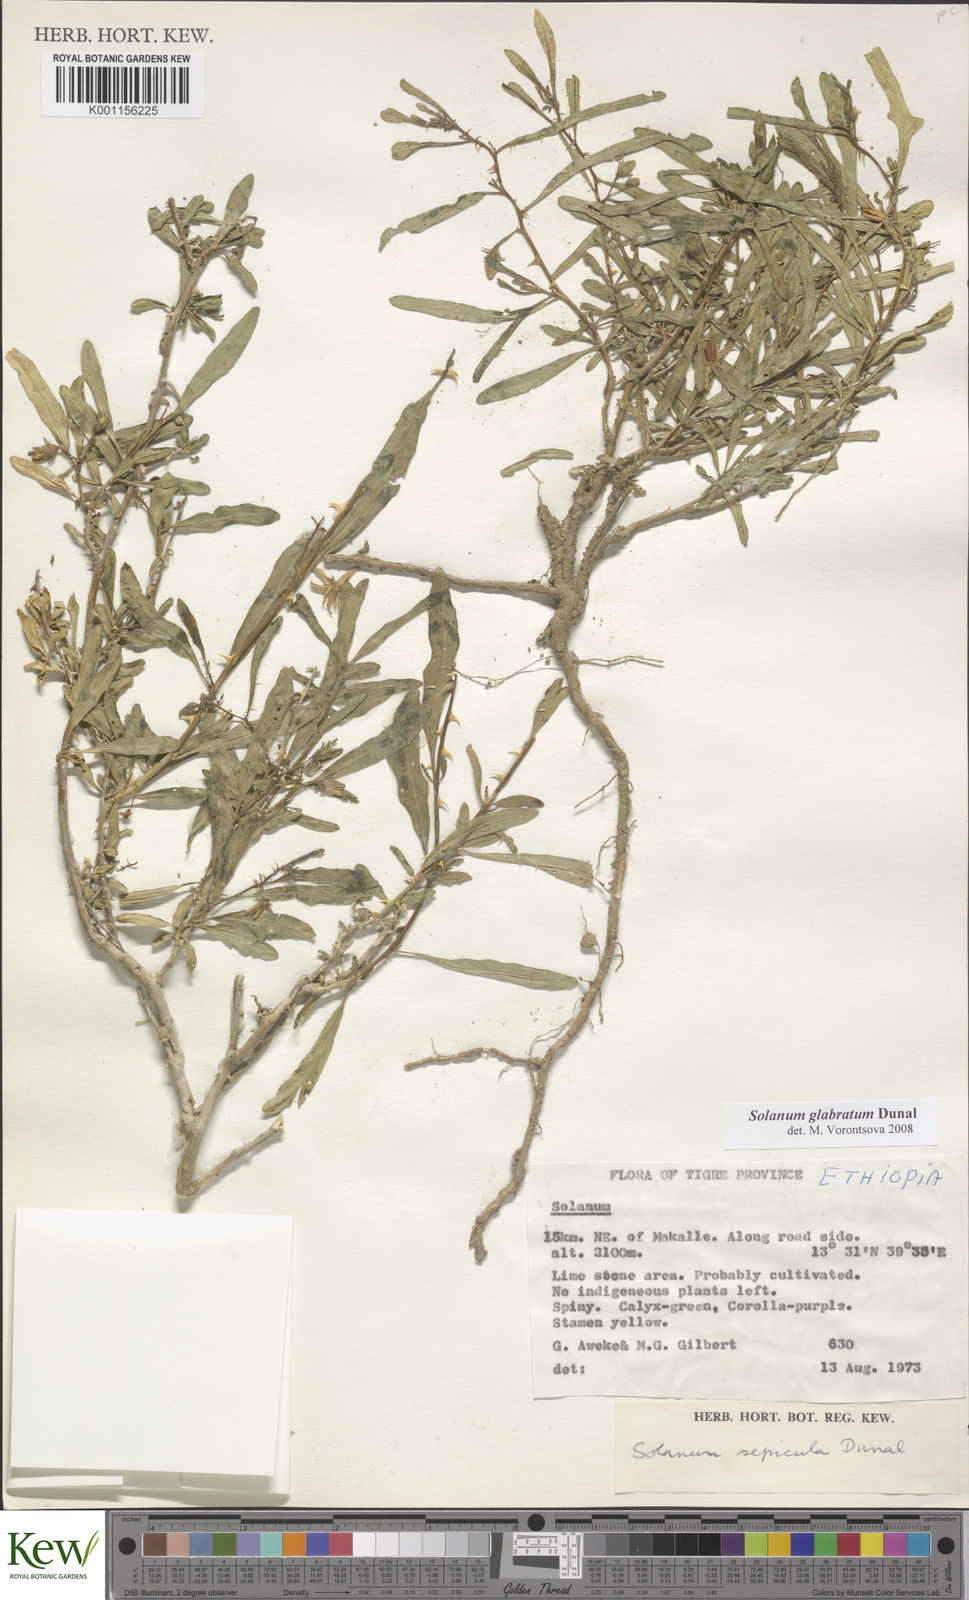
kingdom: Plantae
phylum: Tracheophyta
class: Magnoliopsida
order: Solanales
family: Solanaceae
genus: Solanum
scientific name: Solanum glabratum
